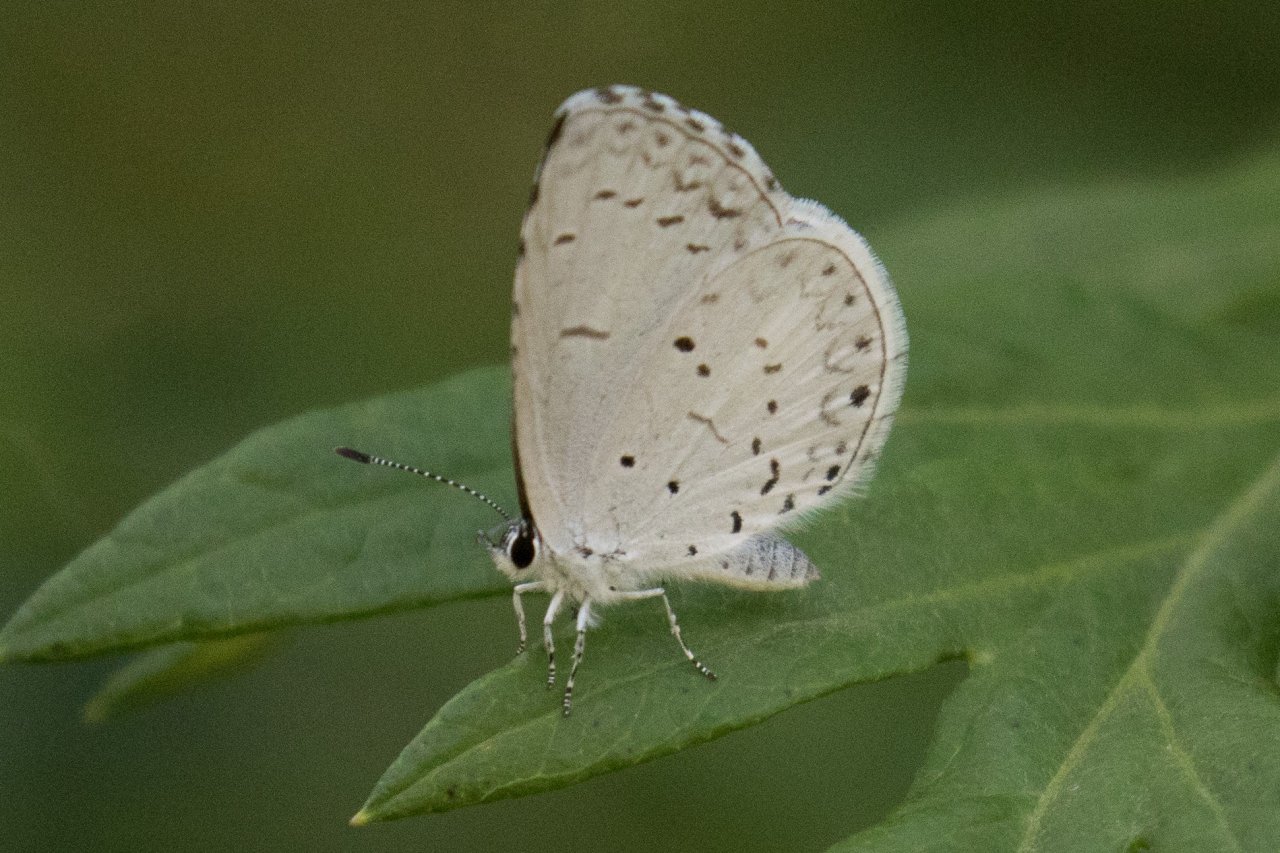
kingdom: Animalia
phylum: Arthropoda
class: Insecta
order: Lepidoptera
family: Lycaenidae
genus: Cyaniris
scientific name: Cyaniris neglecta
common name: Summer Azure
